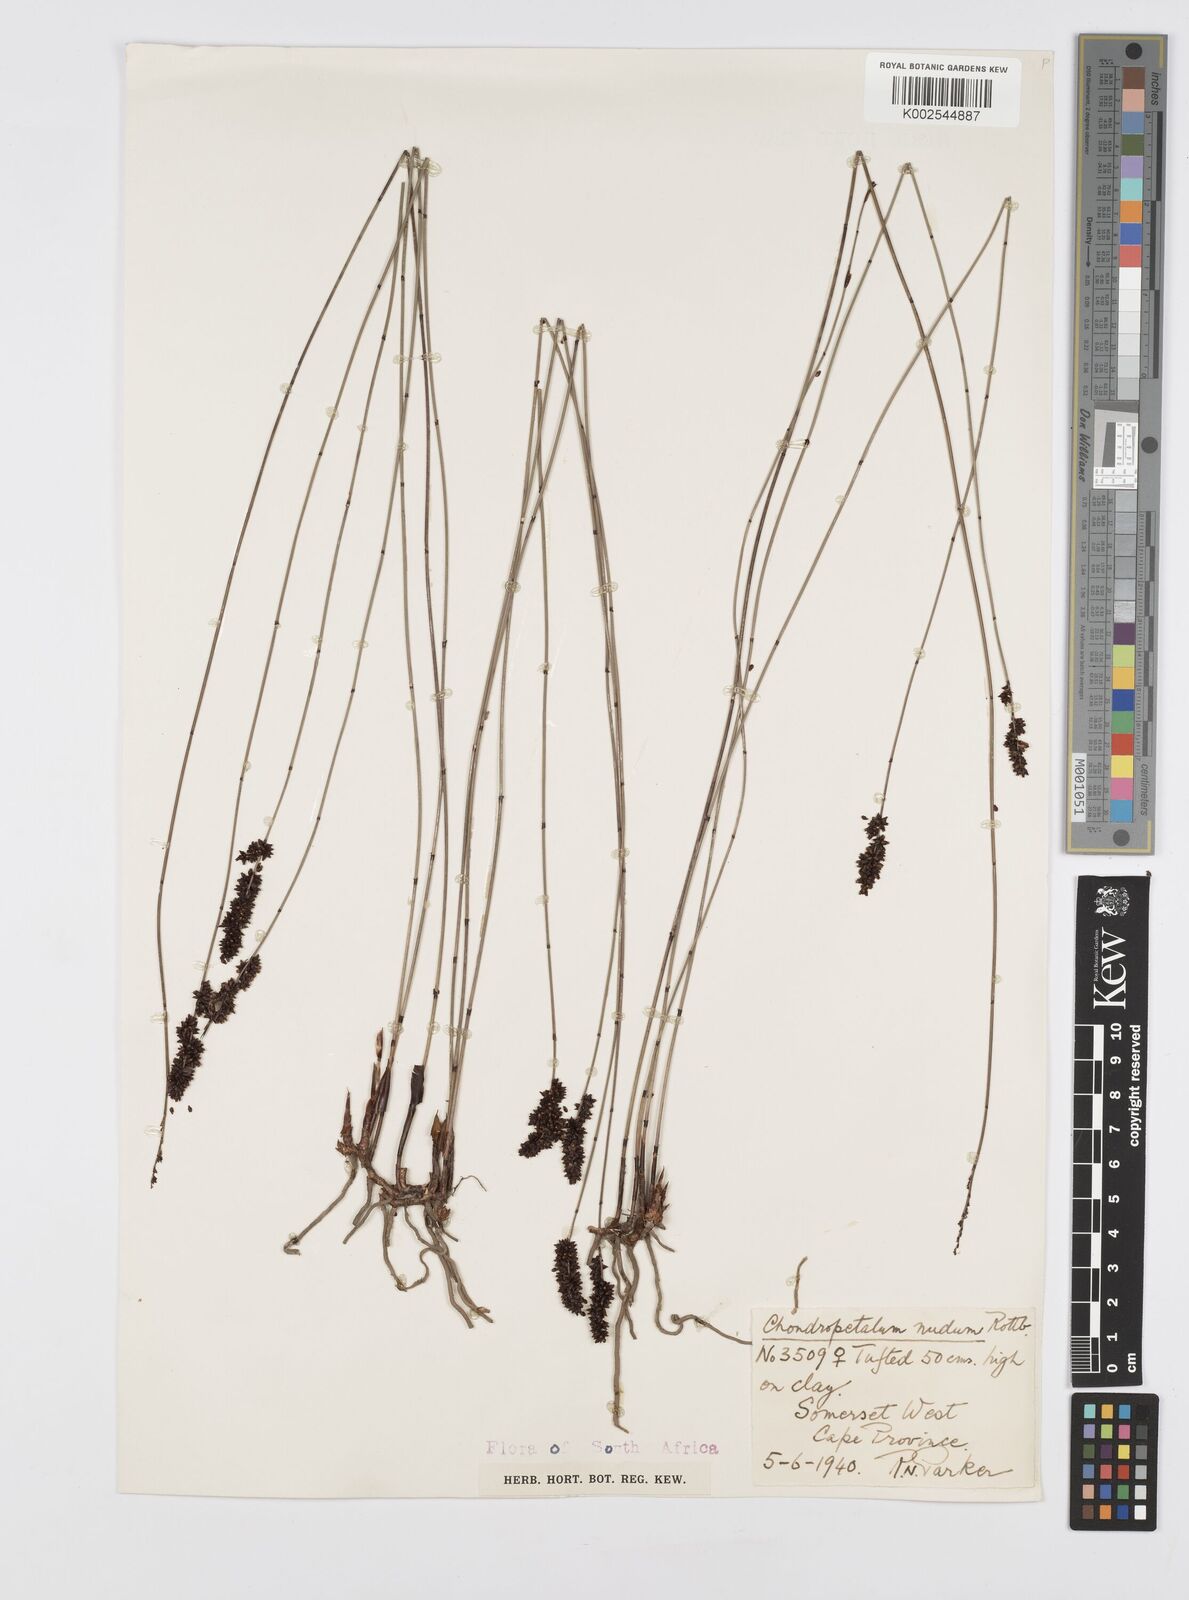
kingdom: Plantae
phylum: Tracheophyta
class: Liliopsida
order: Poales
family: Restionaceae
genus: Elegia
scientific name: Elegia nuda
